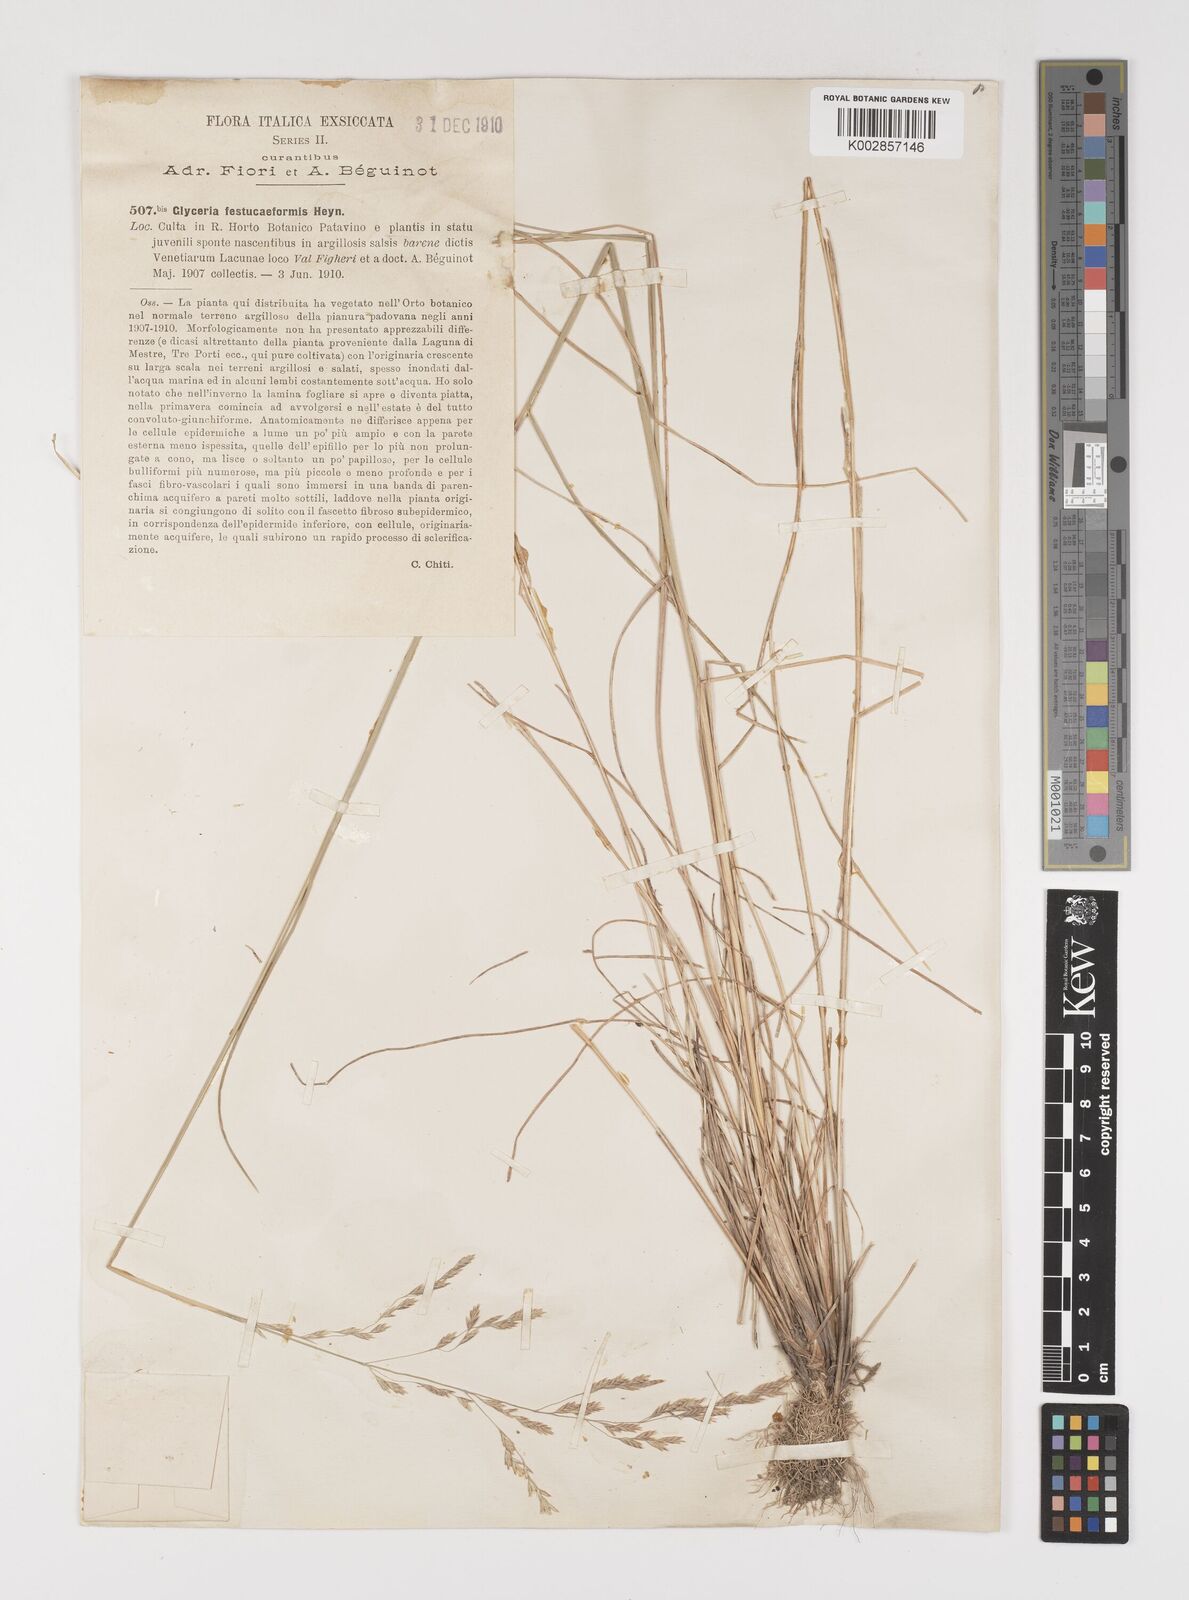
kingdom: Plantae
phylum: Tracheophyta
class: Liliopsida
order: Poales
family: Poaceae
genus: Puccinellia
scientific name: Puccinellia festuciformis
